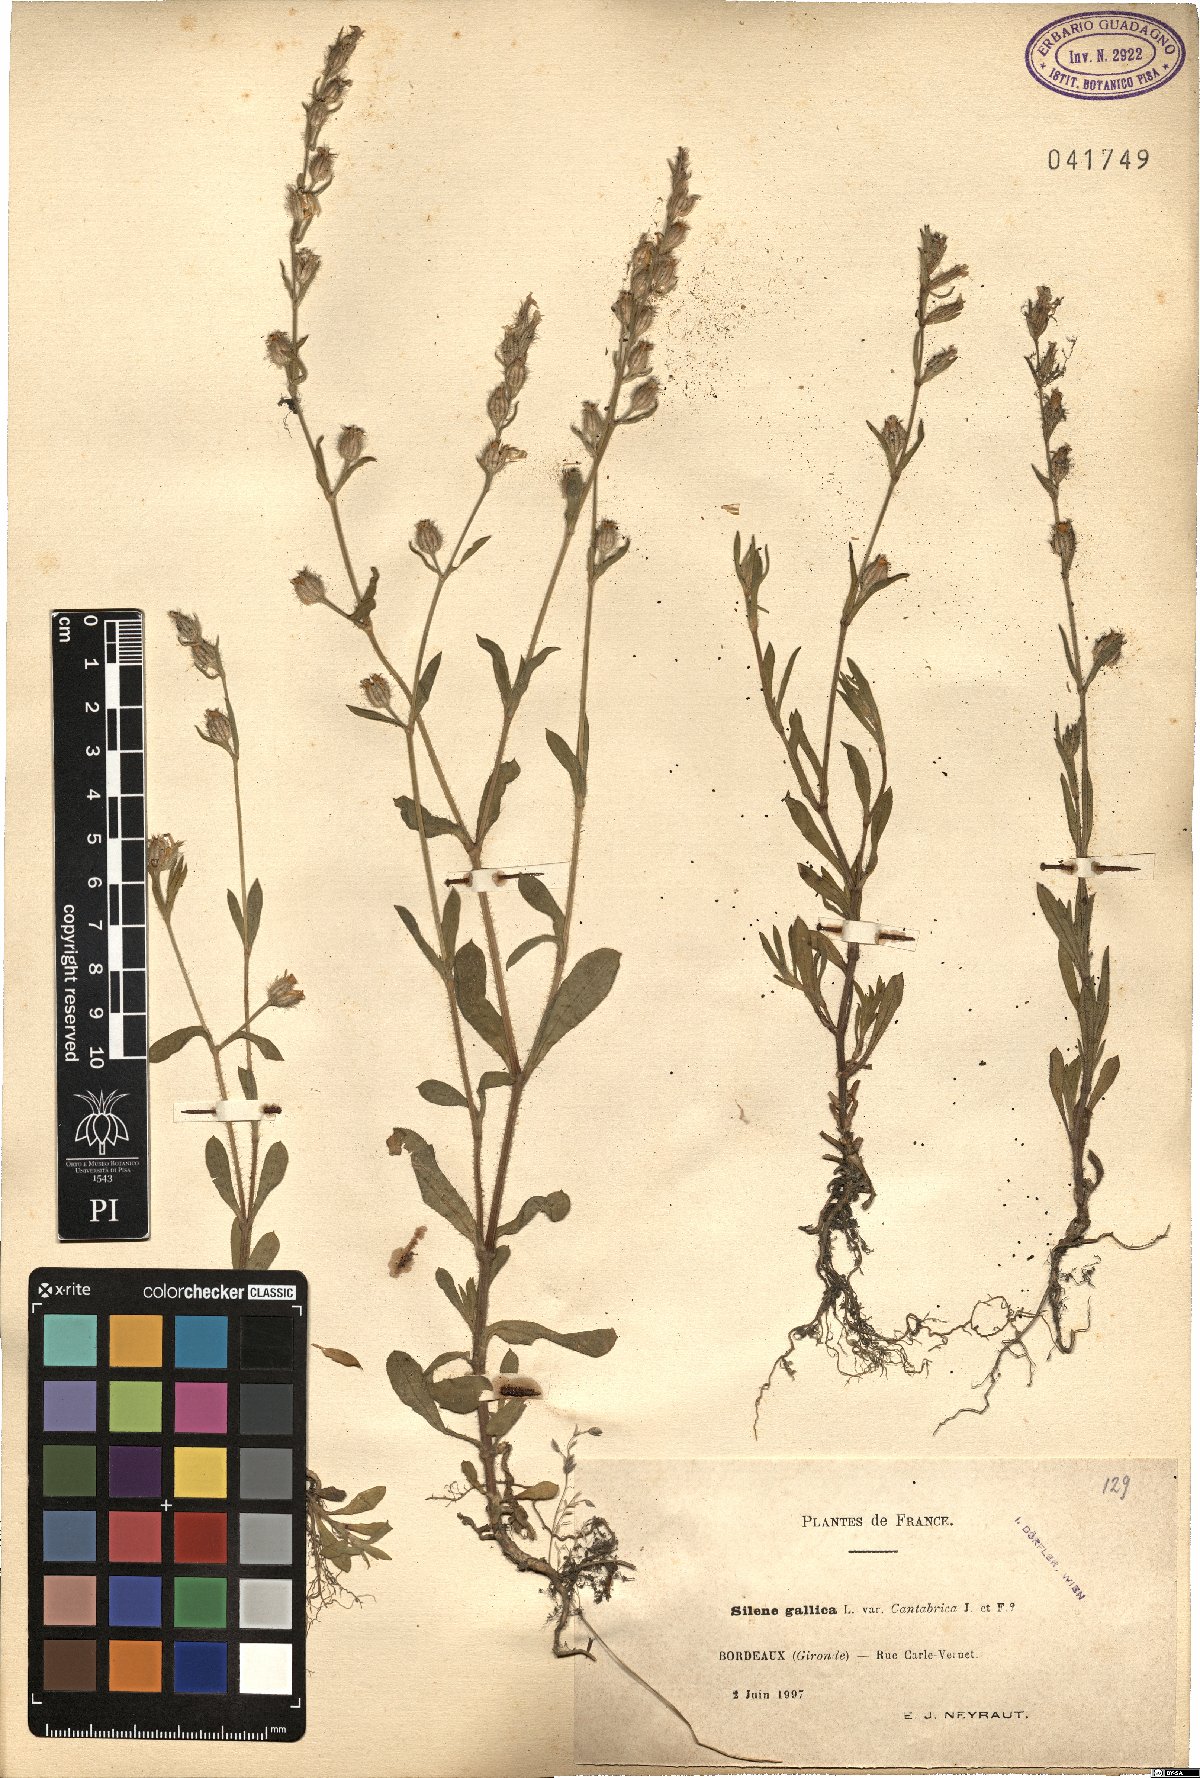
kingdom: Plantae
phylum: Tracheophyta
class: Magnoliopsida
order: Caryophyllales
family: Caryophyllaceae
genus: Silene
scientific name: Silene gallica
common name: Small-flowered catchfly
